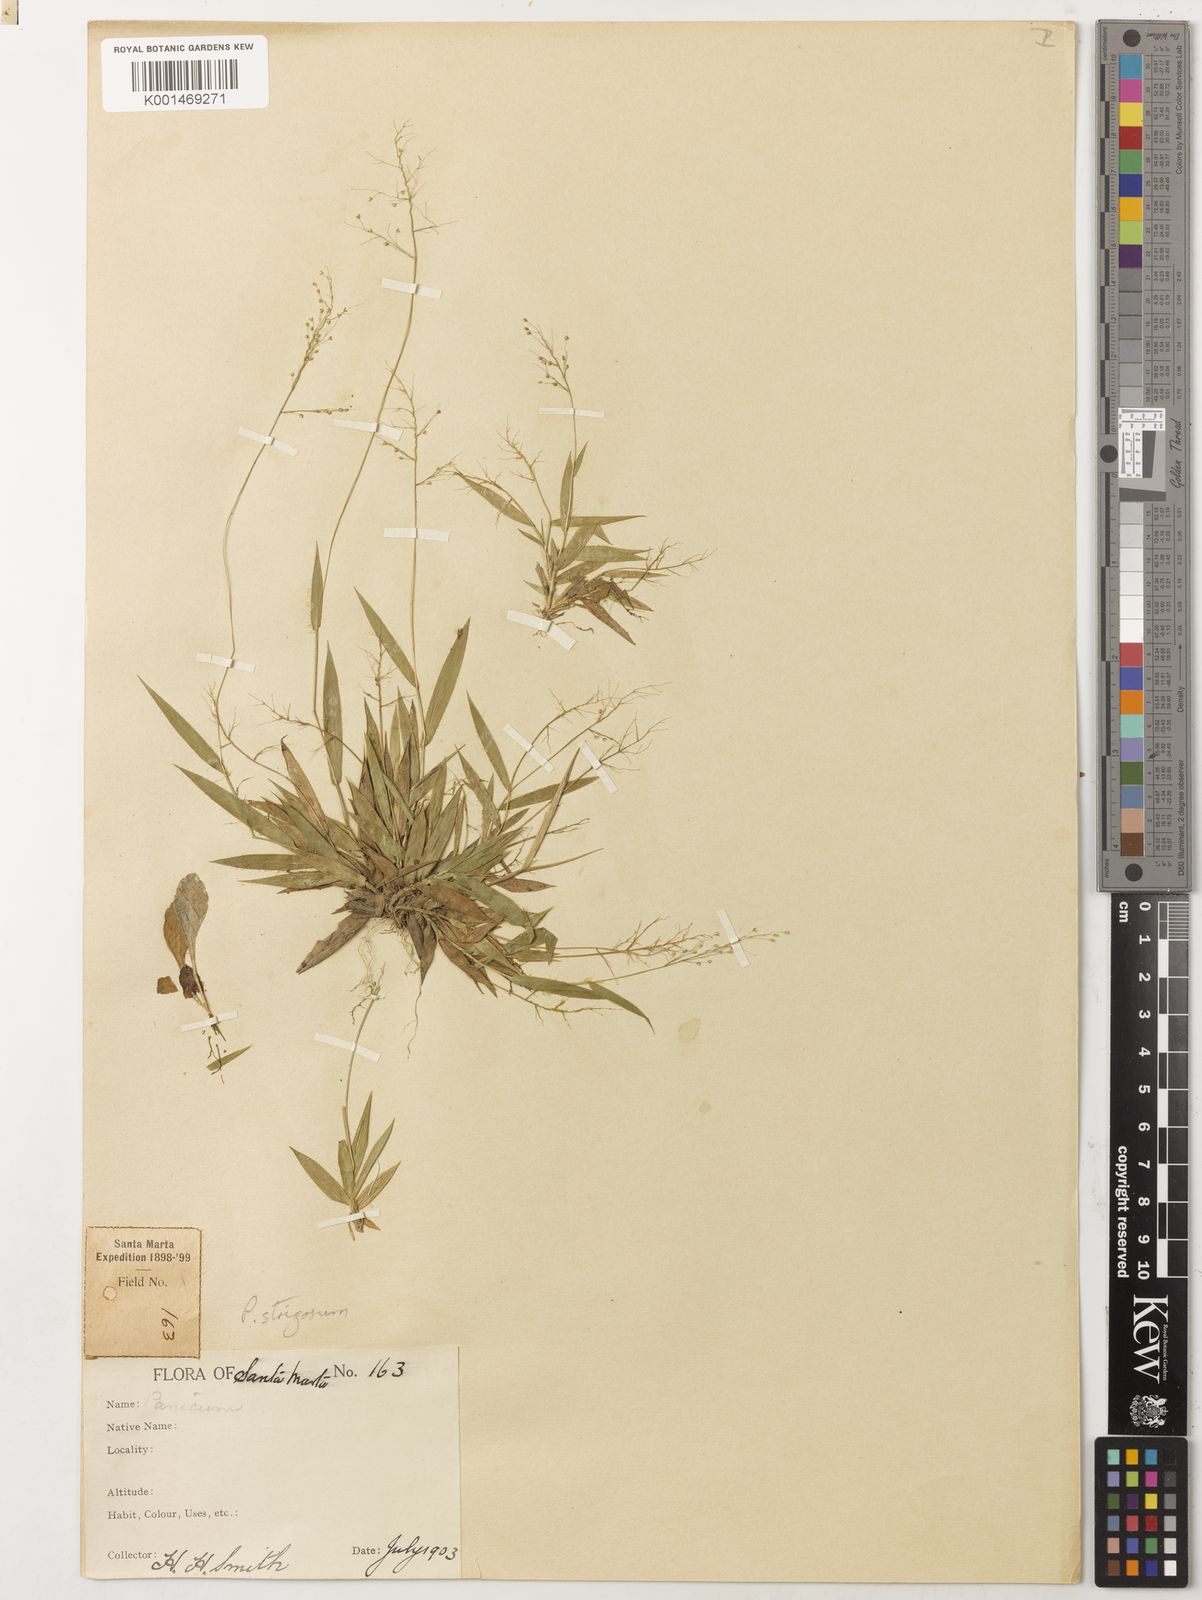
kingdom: Plantae
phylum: Tracheophyta
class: Liliopsida
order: Poales
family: Poaceae
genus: Dichanthelium
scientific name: Dichanthelium strigosum
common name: Cushion-tuft panic grass
